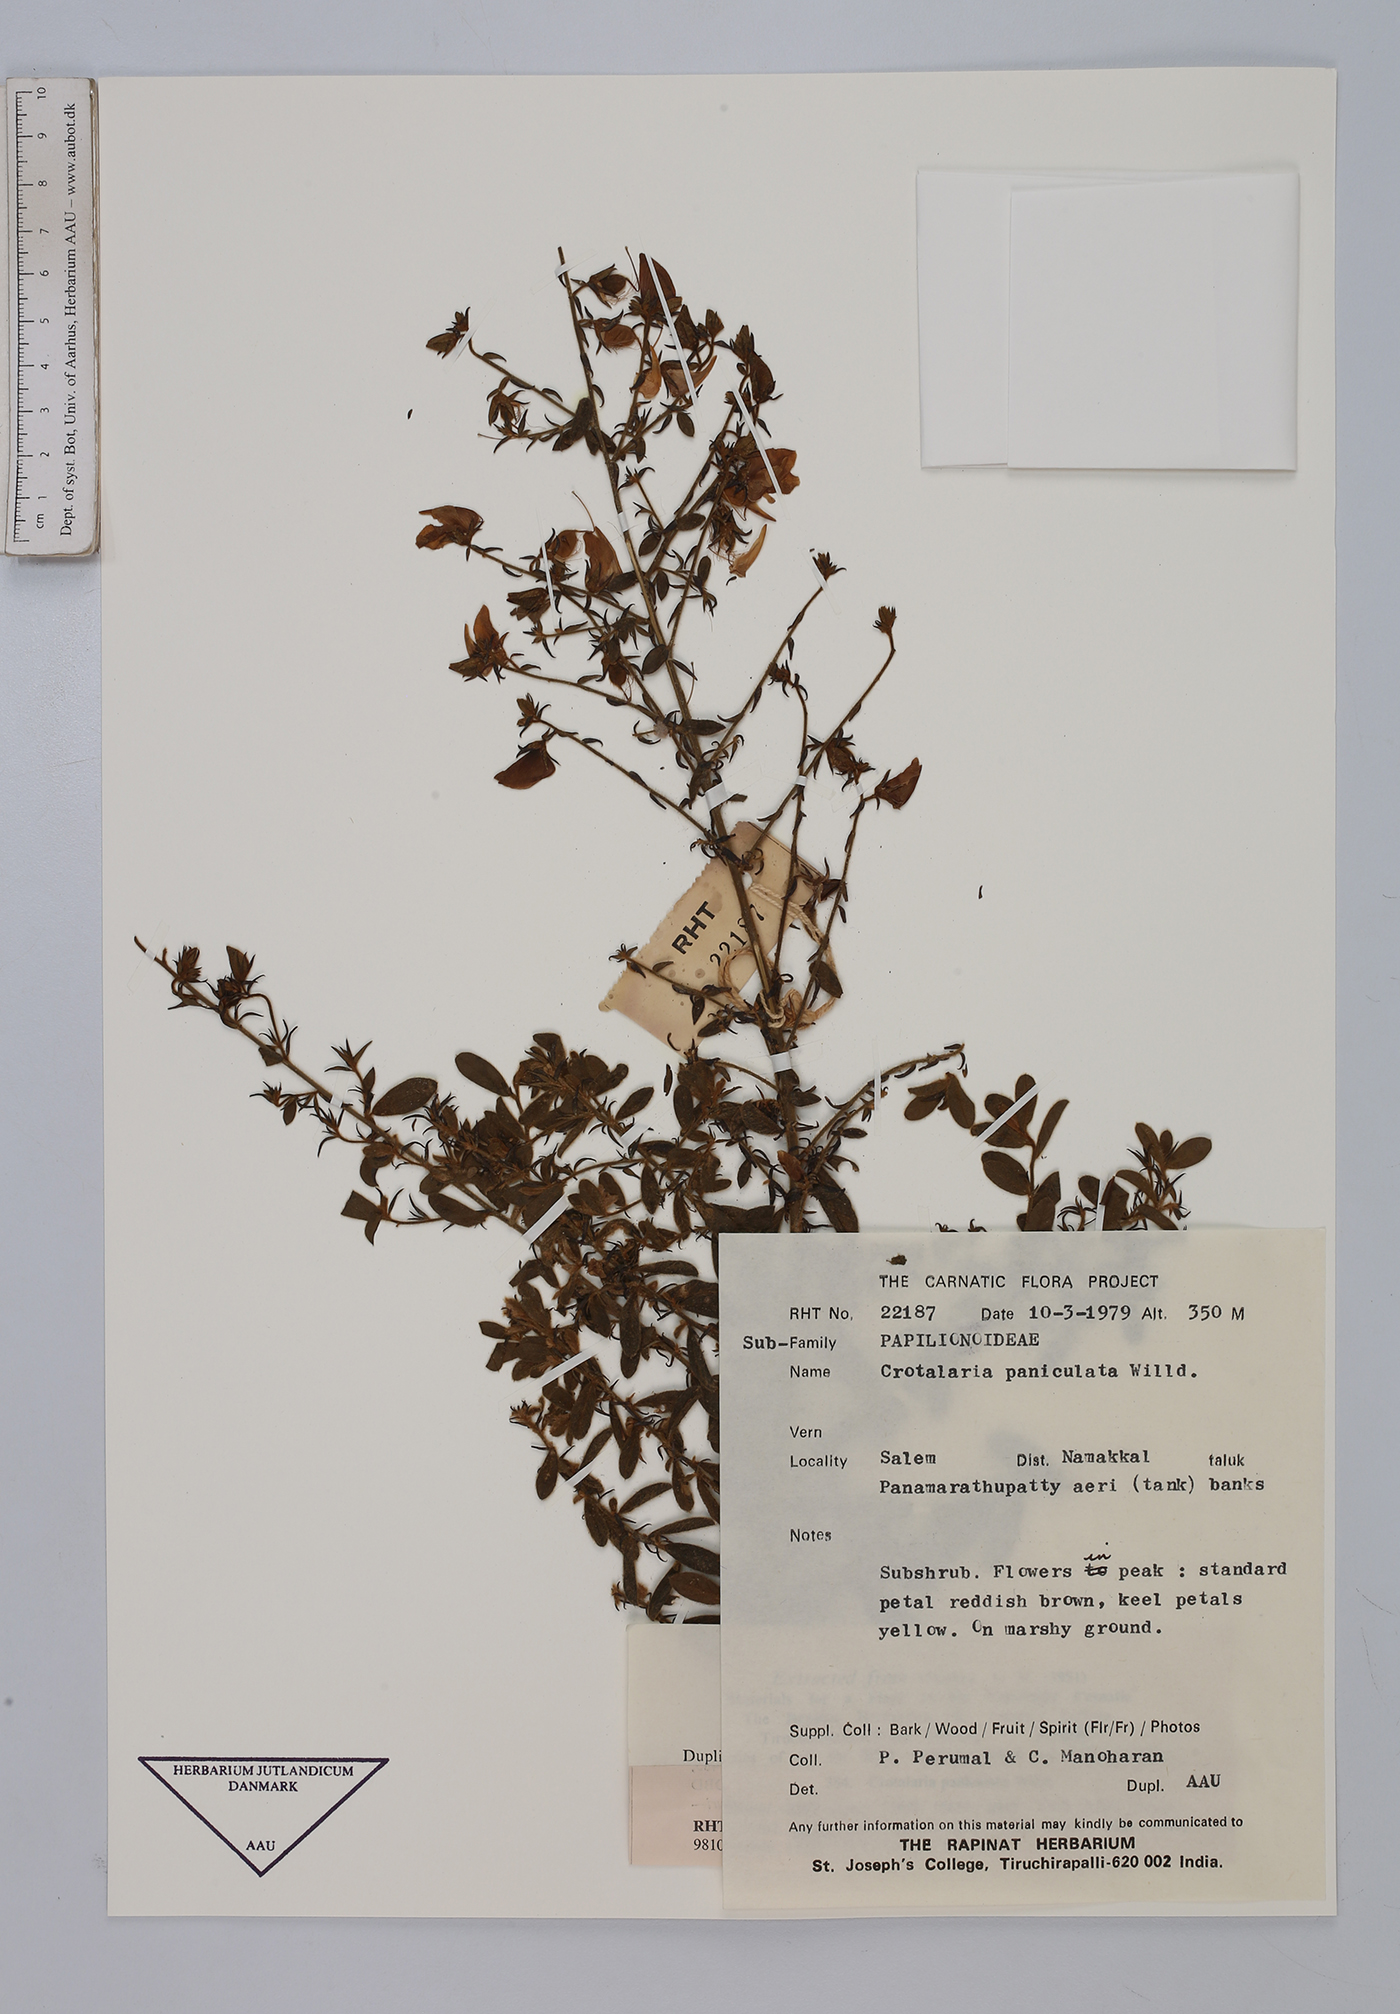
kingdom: Plantae
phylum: Tracheophyta
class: Magnoliopsida
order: Fabales
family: Fabaceae
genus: Crotalaria
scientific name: Crotalaria paniculata
